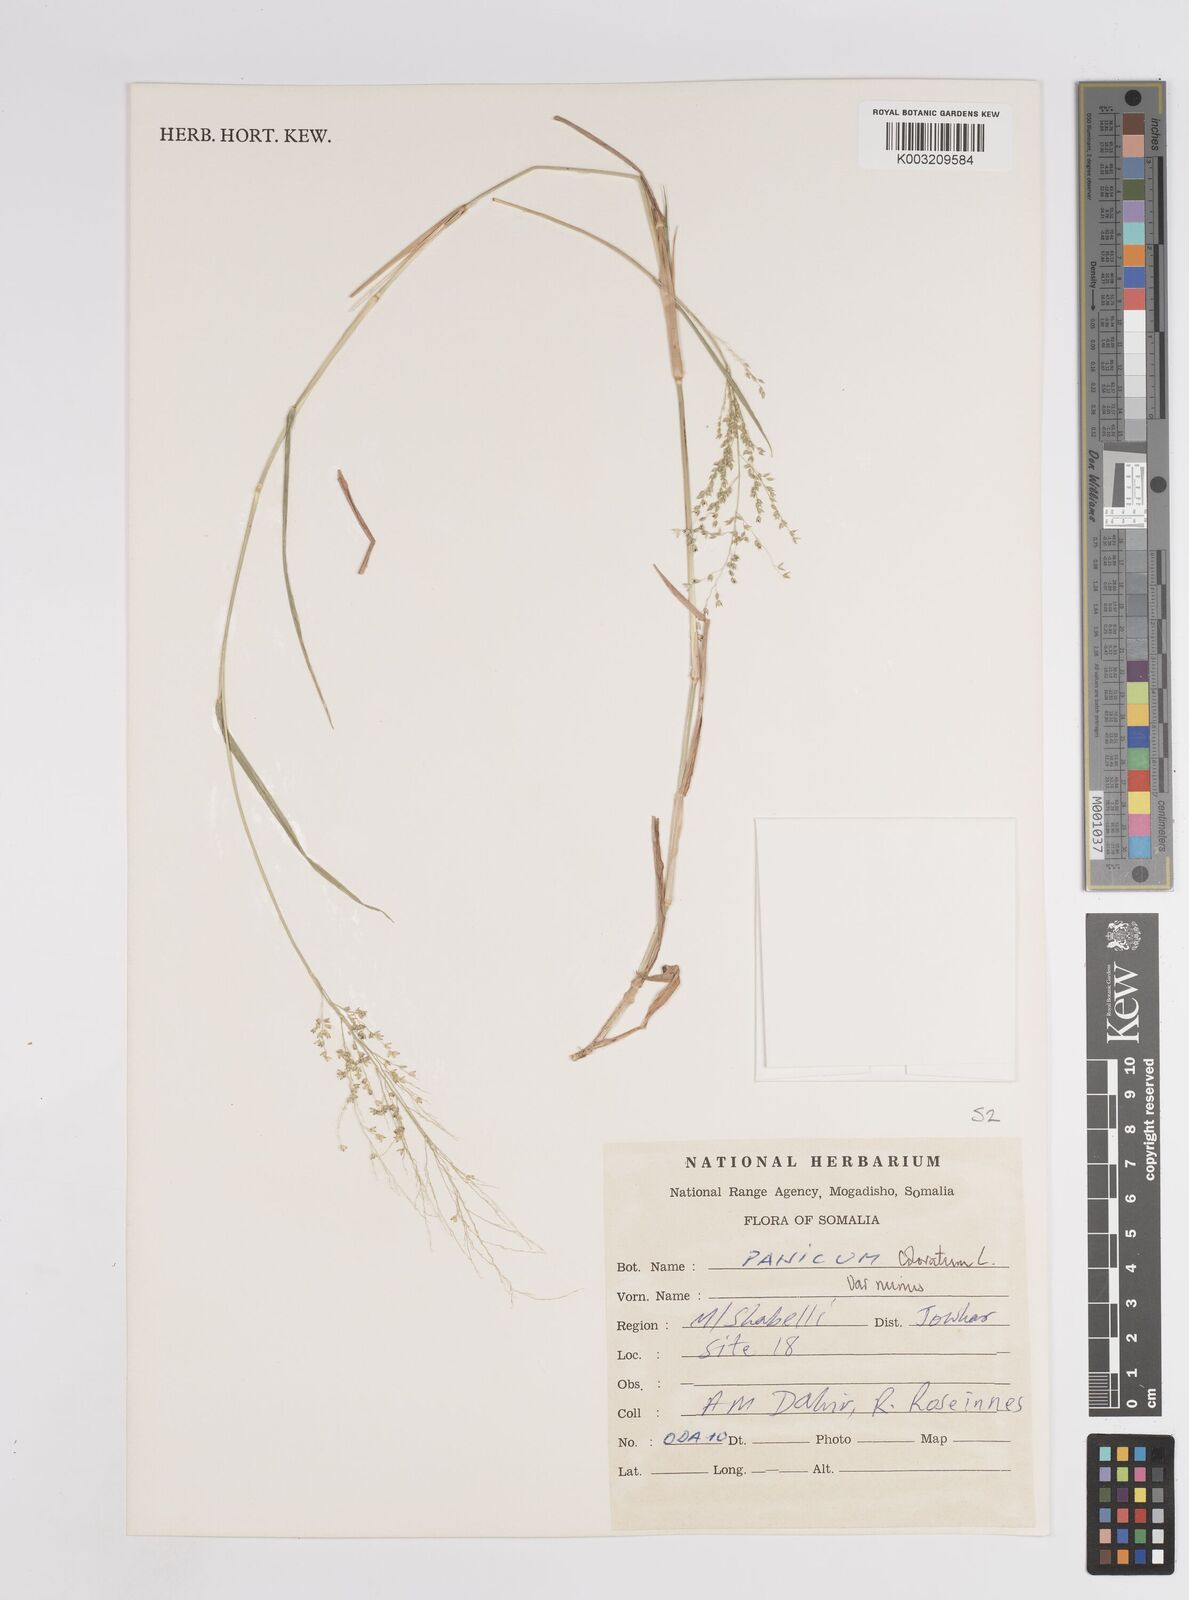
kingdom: Plantae
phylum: Tracheophyta
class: Liliopsida
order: Poales
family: Poaceae
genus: Panicum
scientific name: Panicum coloratum
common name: Kleingrass
